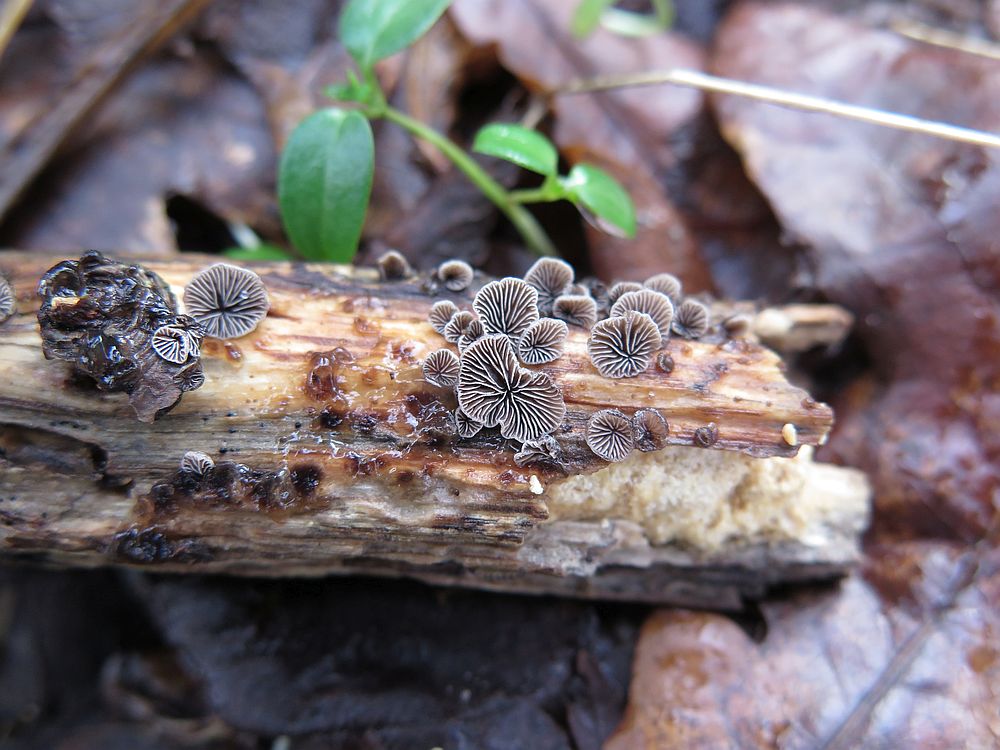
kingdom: Fungi
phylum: Basidiomycota
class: Agaricomycetes
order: Agaricales
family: Pleurotaceae
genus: Resupinatus
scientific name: Resupinatus applicatus
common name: lysfiltet barkhat
